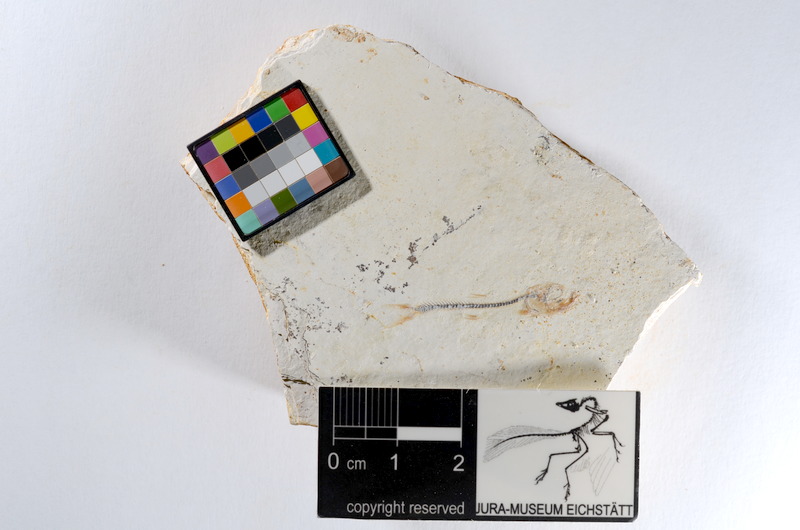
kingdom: Animalia
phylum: Chordata
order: Salmoniformes
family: Orthogonikleithridae
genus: Orthogonikleithrus
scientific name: Orthogonikleithrus hoelli
